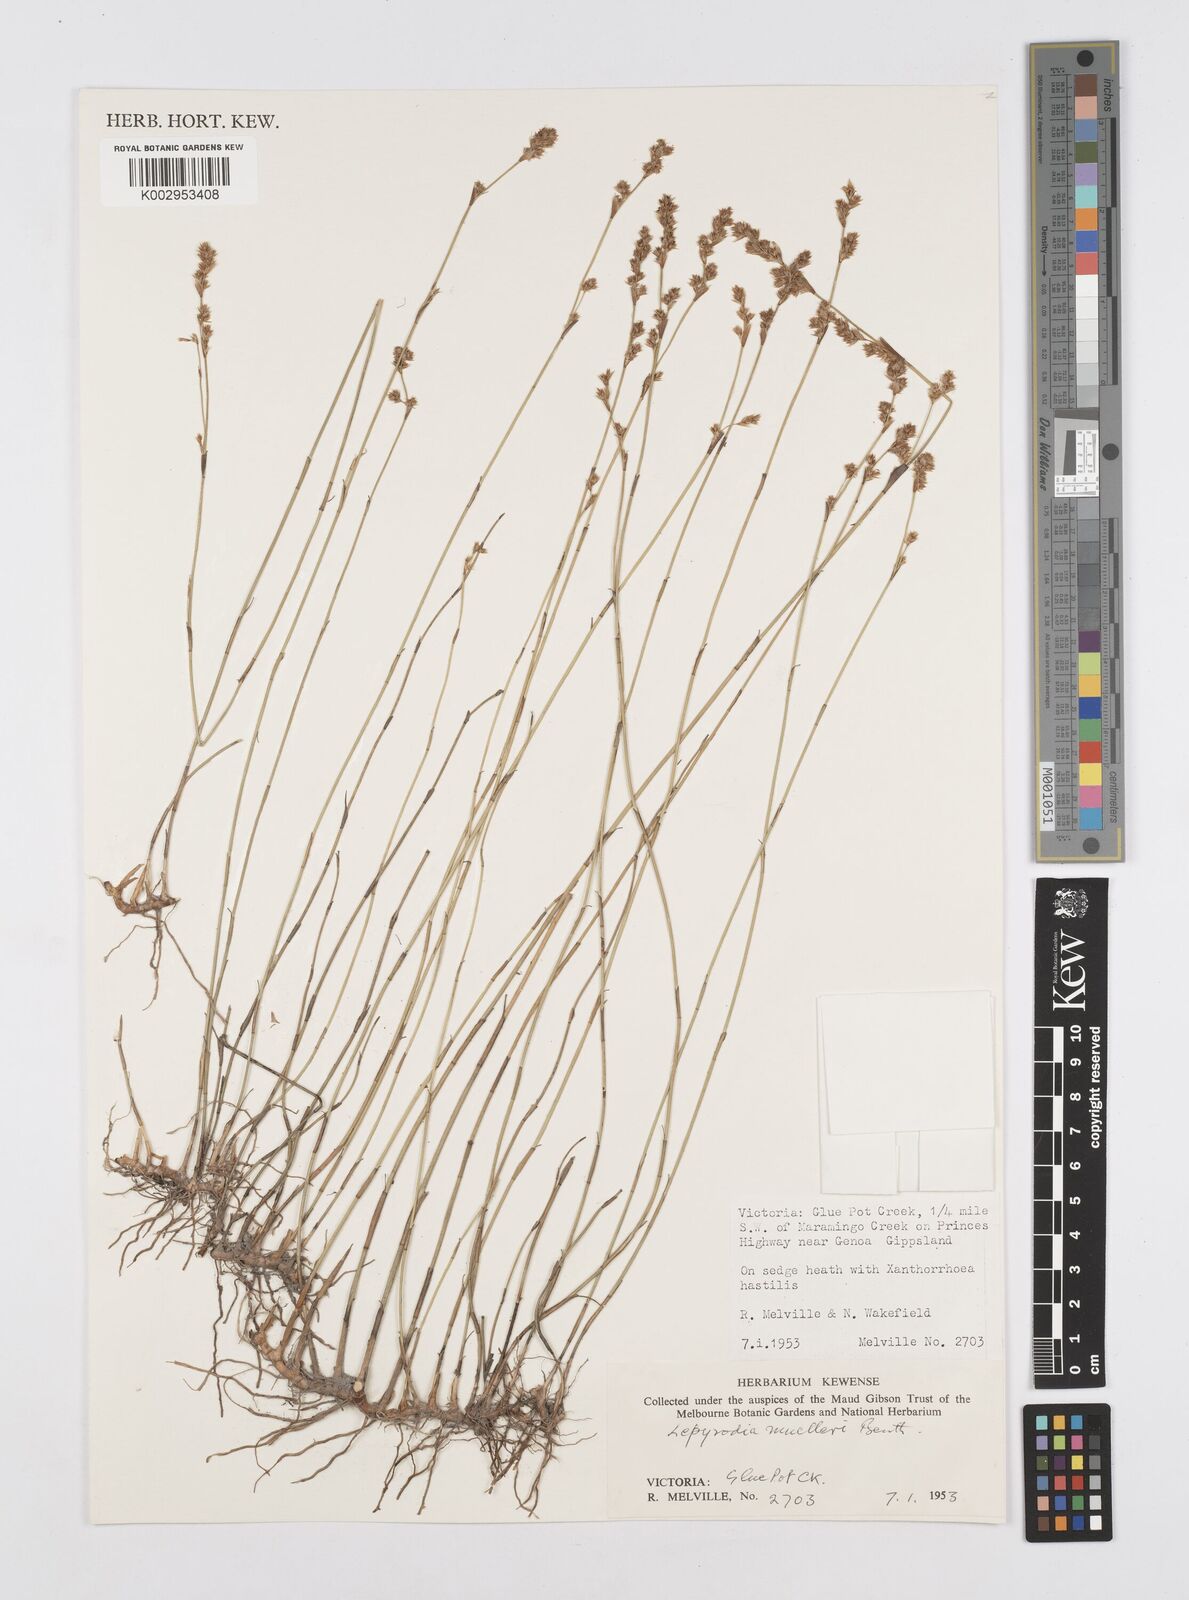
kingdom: Plantae
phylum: Tracheophyta
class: Liliopsida
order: Poales
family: Restionaceae
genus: Lepyrodia
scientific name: Lepyrodia muelleri
